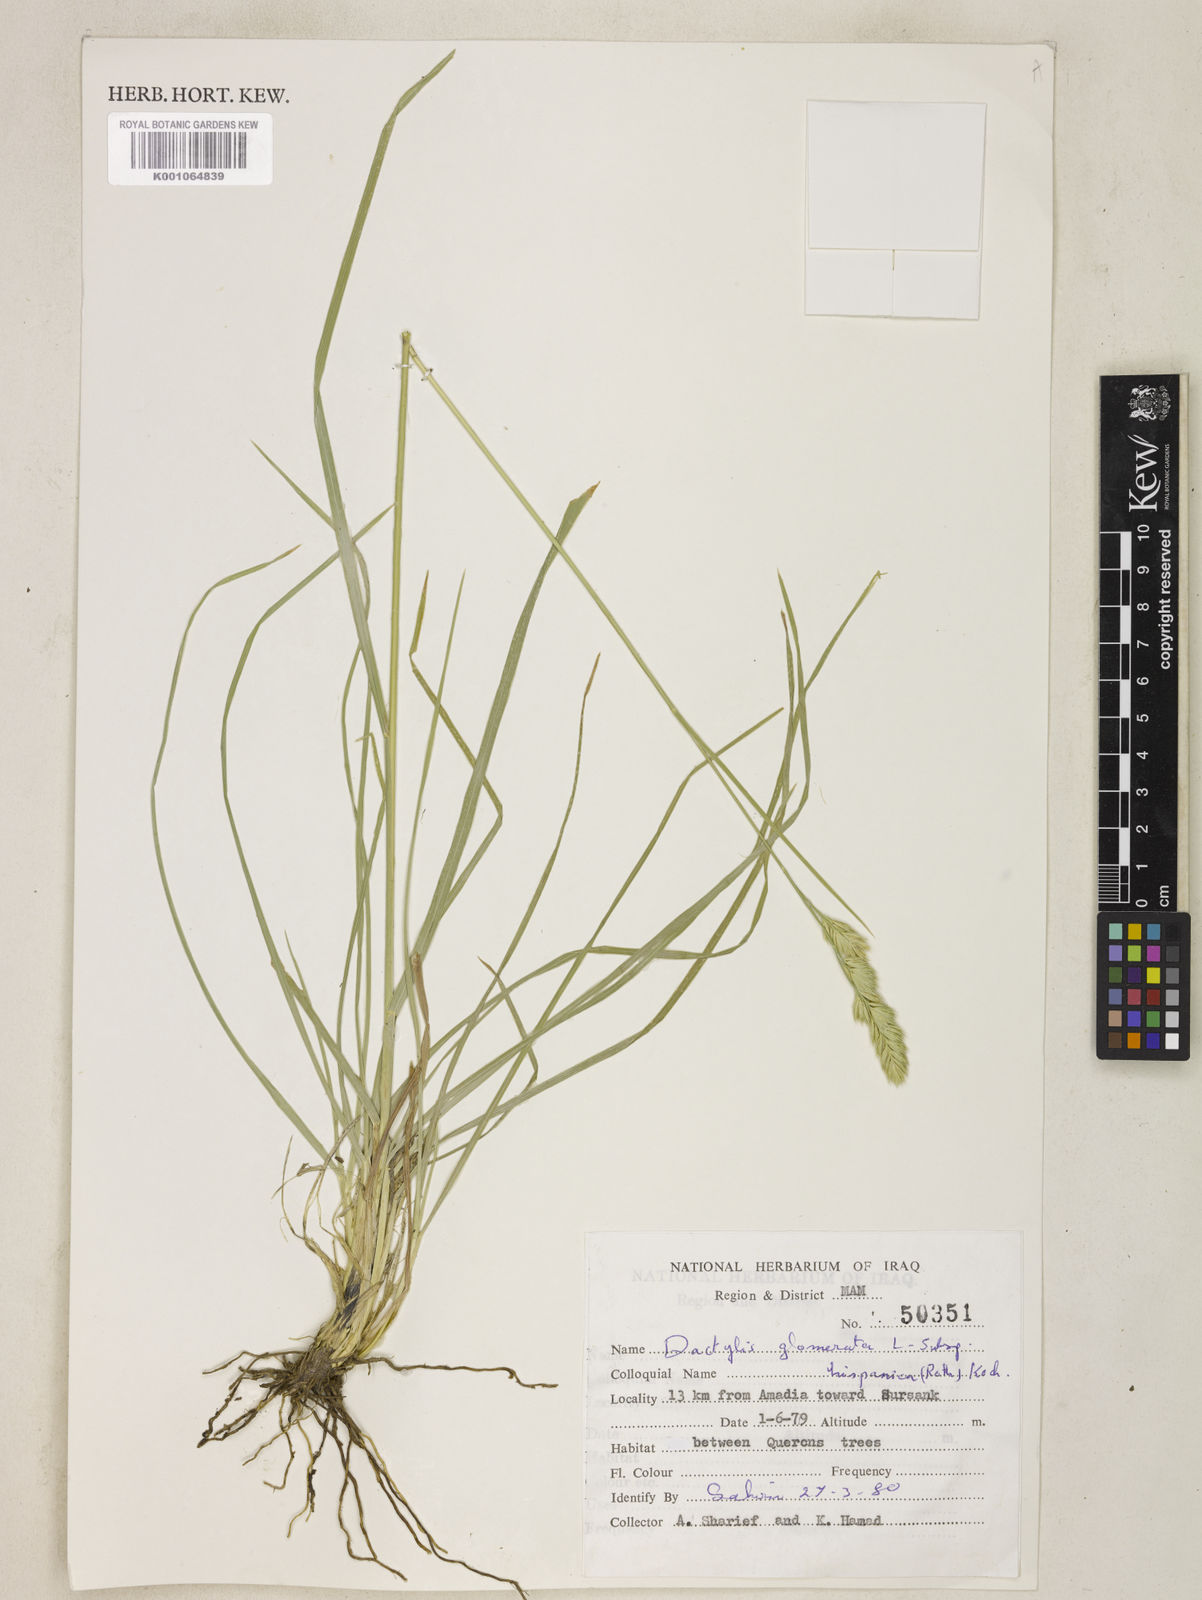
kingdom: Plantae
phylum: Tracheophyta
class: Liliopsida
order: Poales
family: Poaceae
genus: Dactylis
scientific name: Dactylis glomerata
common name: Orchardgrass
